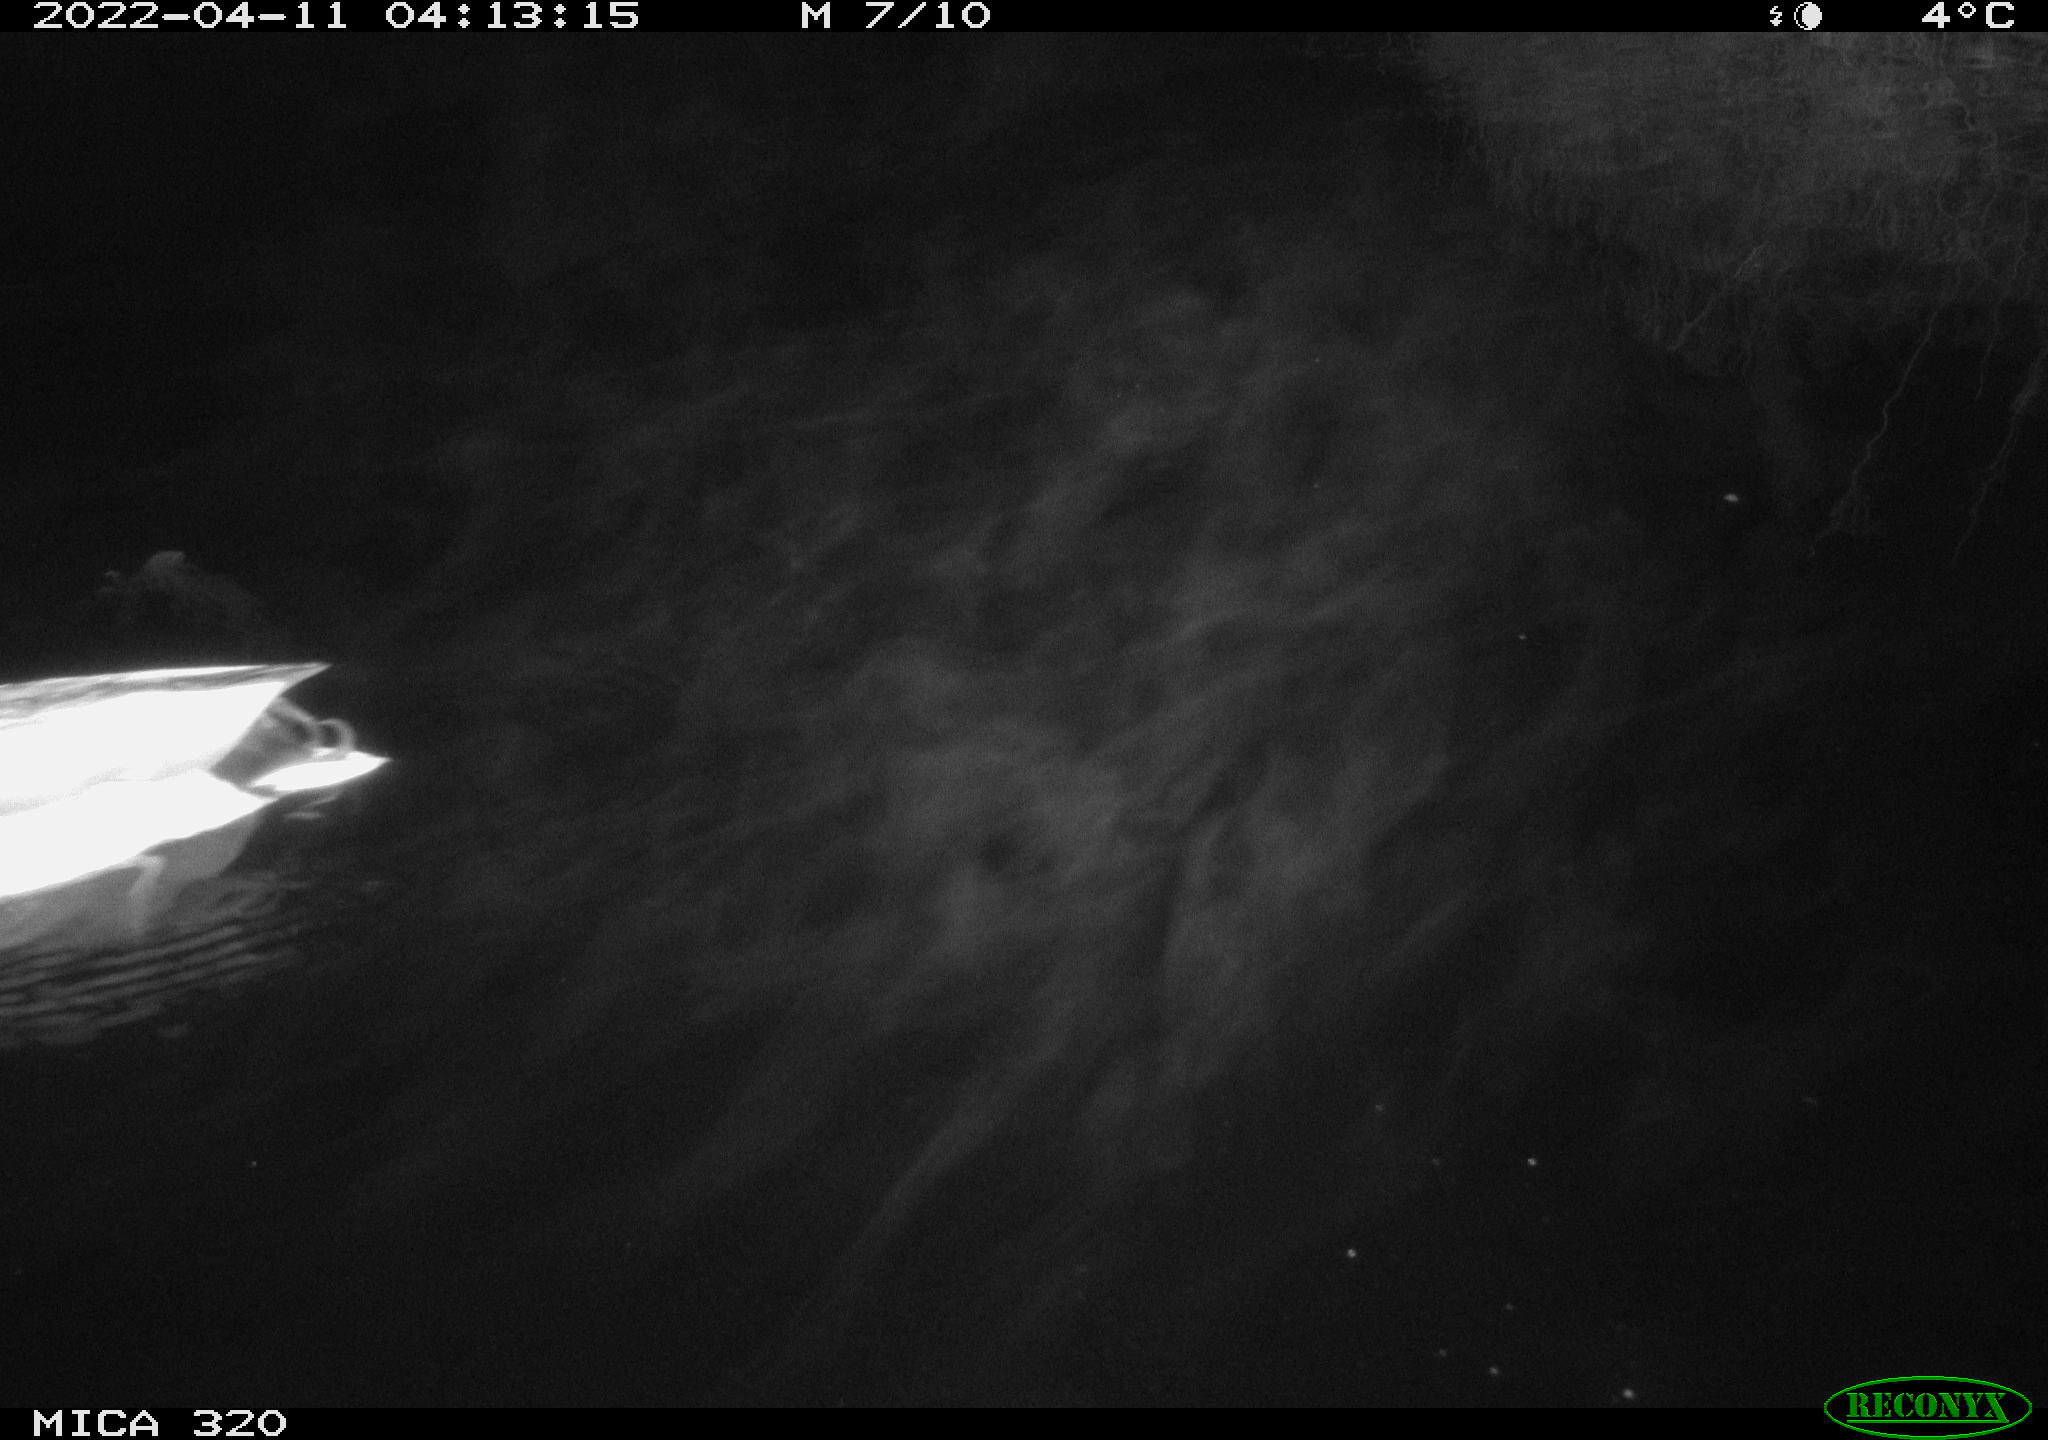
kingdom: Animalia
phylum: Chordata
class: Aves
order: Anseriformes
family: Anatidae
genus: Mareca
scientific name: Mareca strepera
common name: Gadwall
